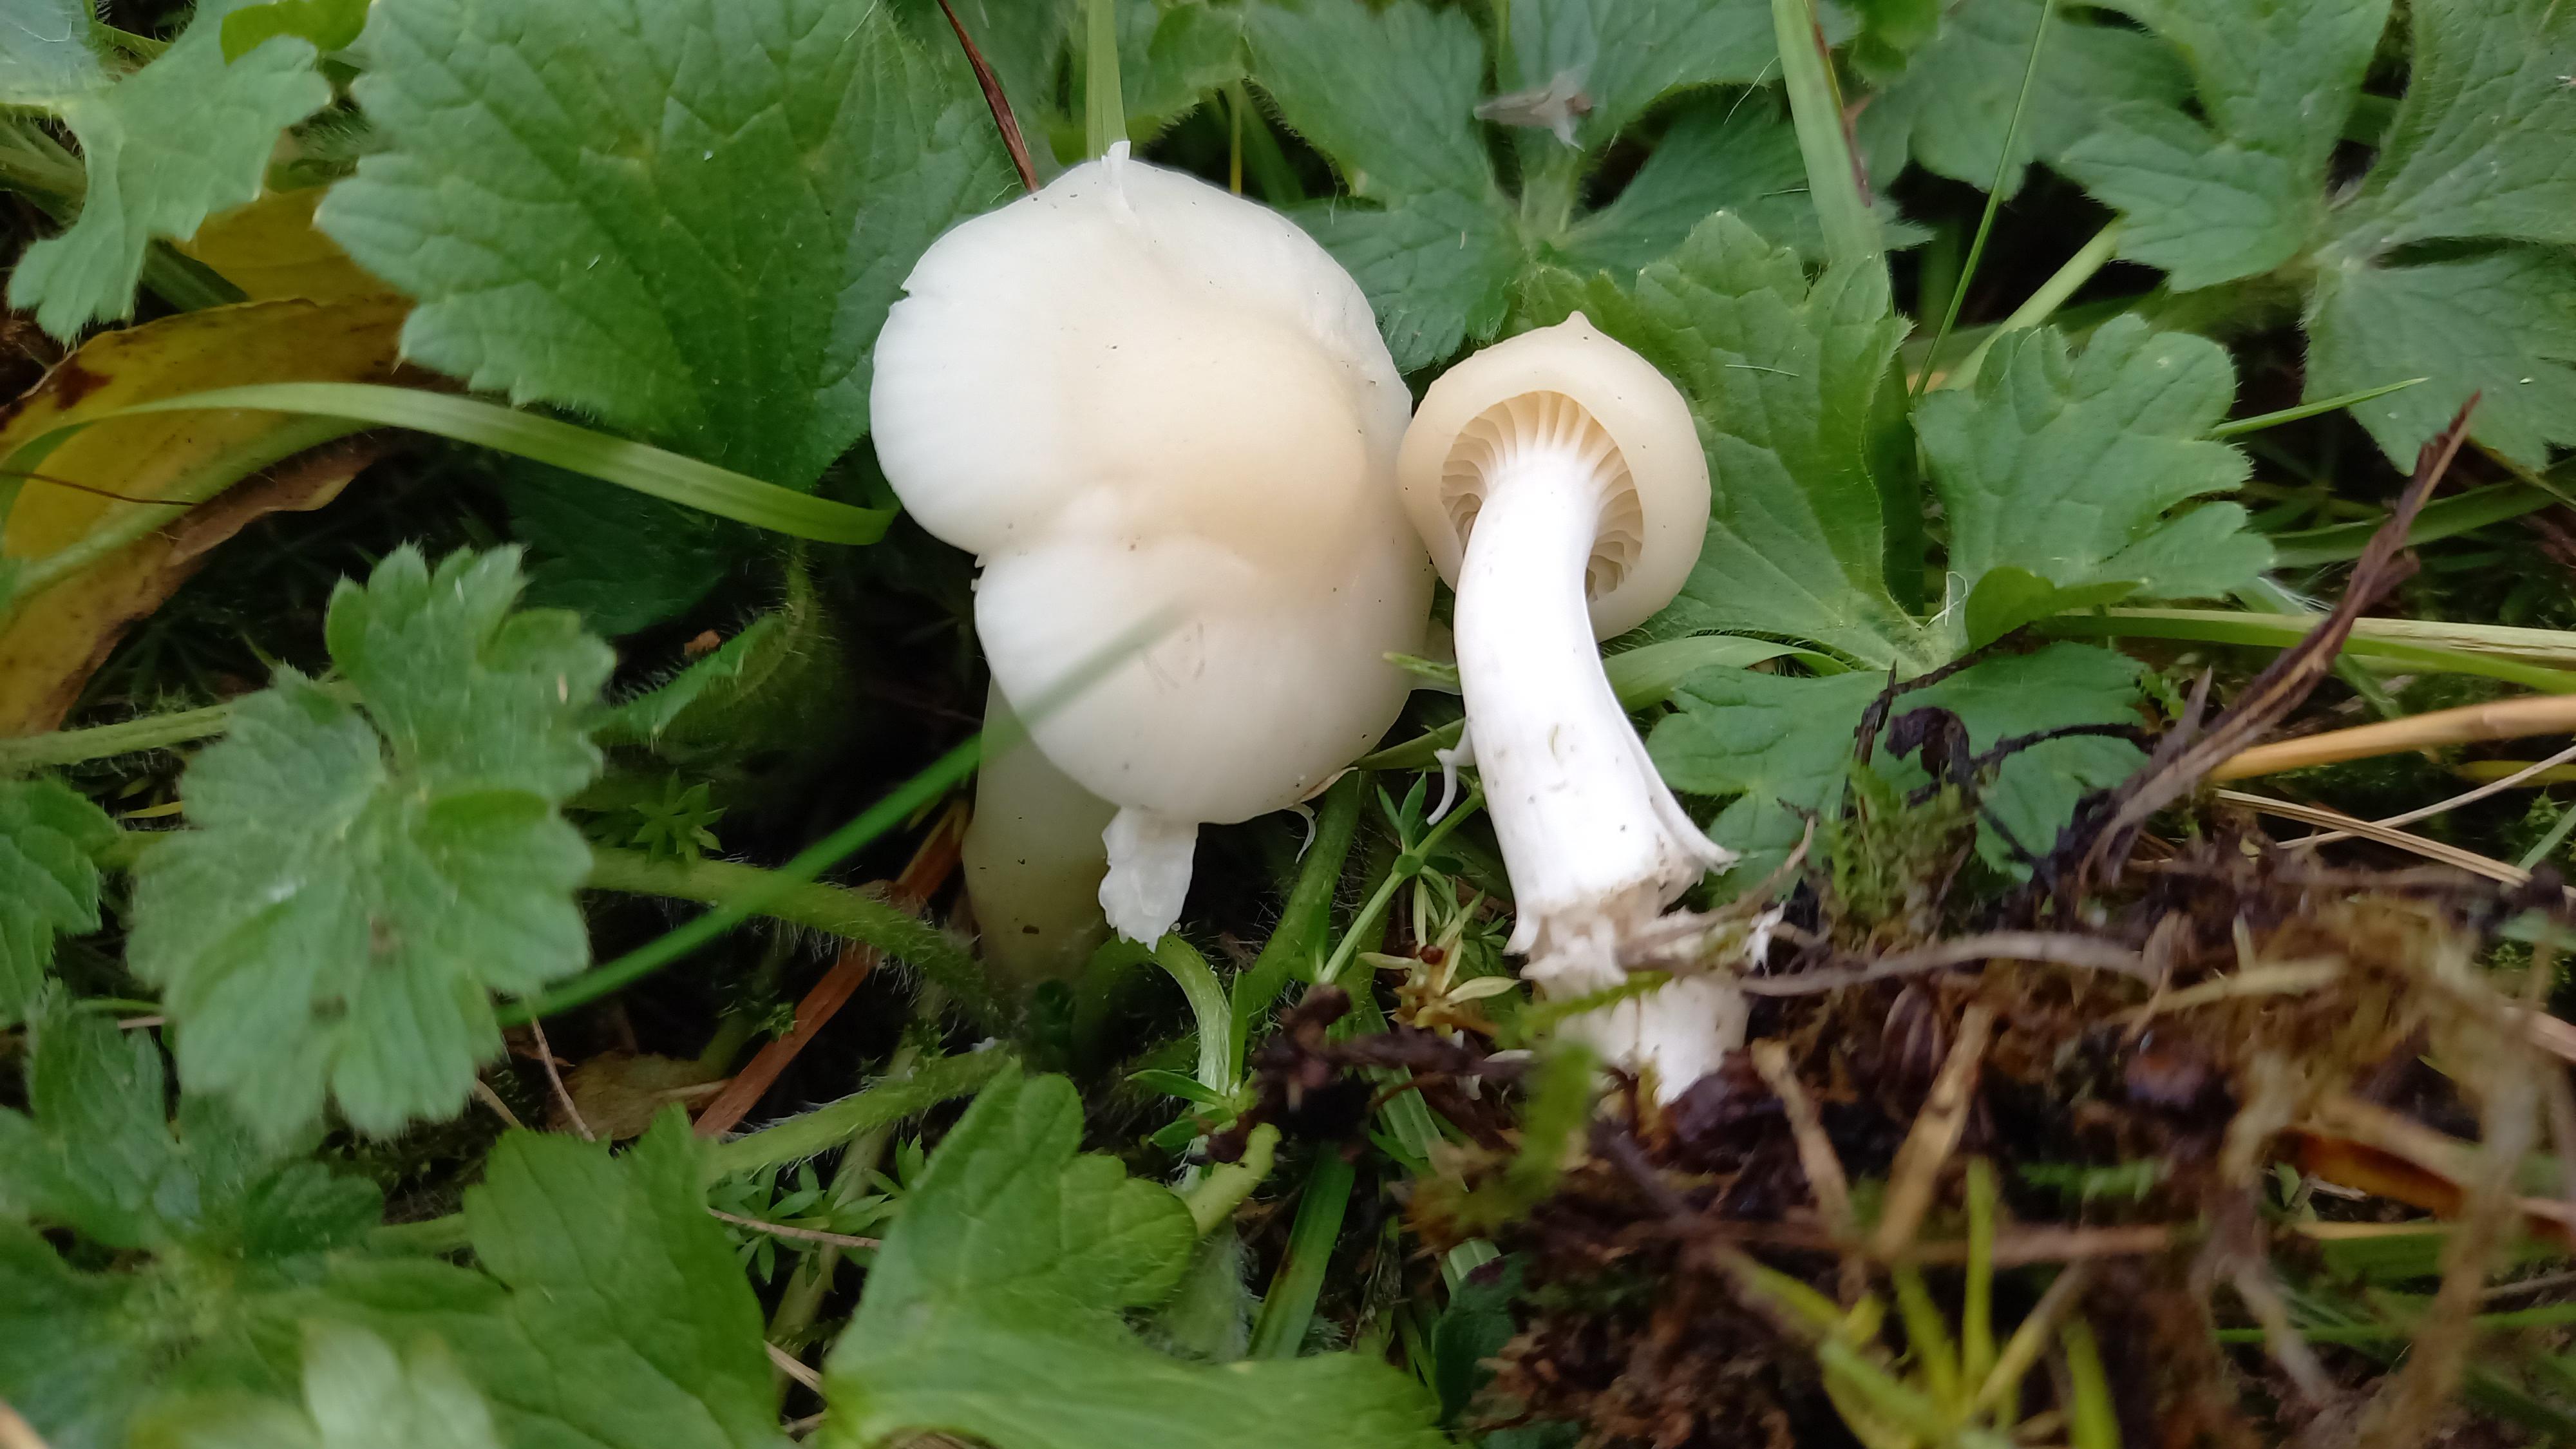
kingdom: Fungi
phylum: Basidiomycota
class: Agaricomycetes
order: Agaricales
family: Hygrophoraceae
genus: Cuphophyllus
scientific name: Cuphophyllus virgineus
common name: snehvid vokshat
